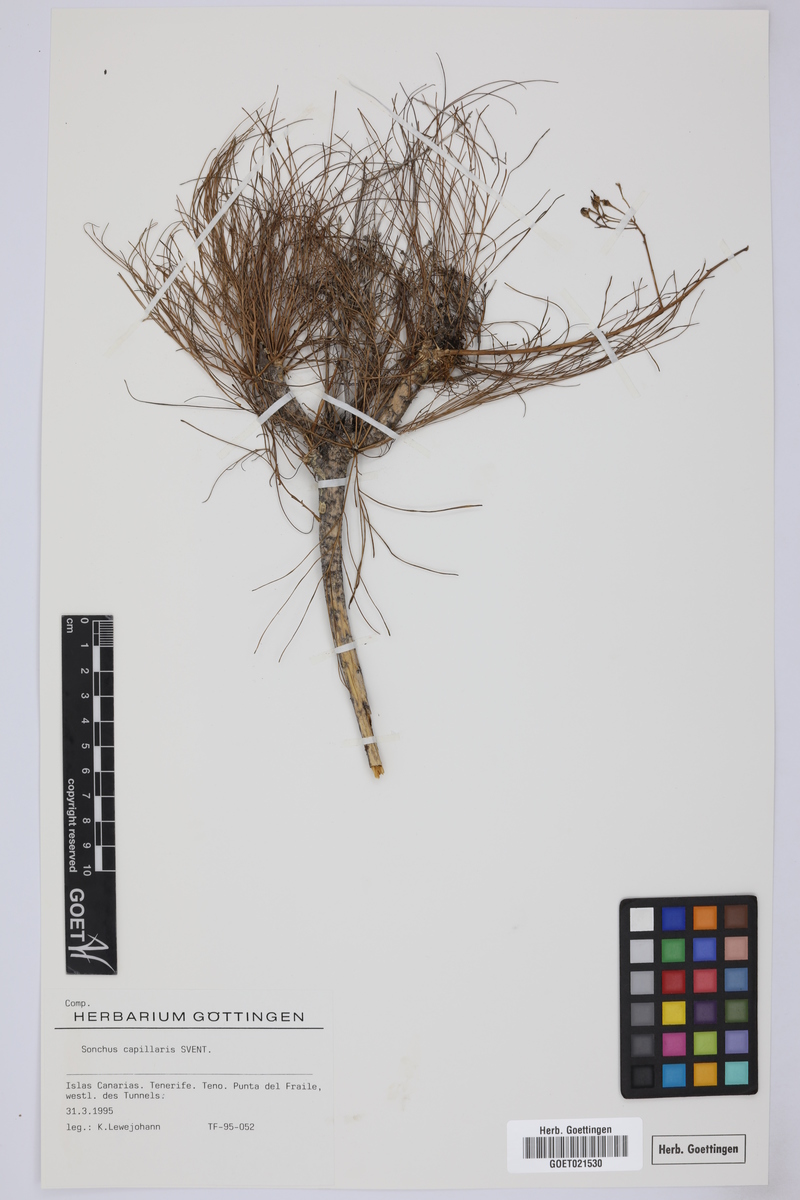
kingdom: Plantae
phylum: Tracheophyta
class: Magnoliopsida
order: Asterales
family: Asteraceae
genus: Sonchus
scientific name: Sonchus capillaris
